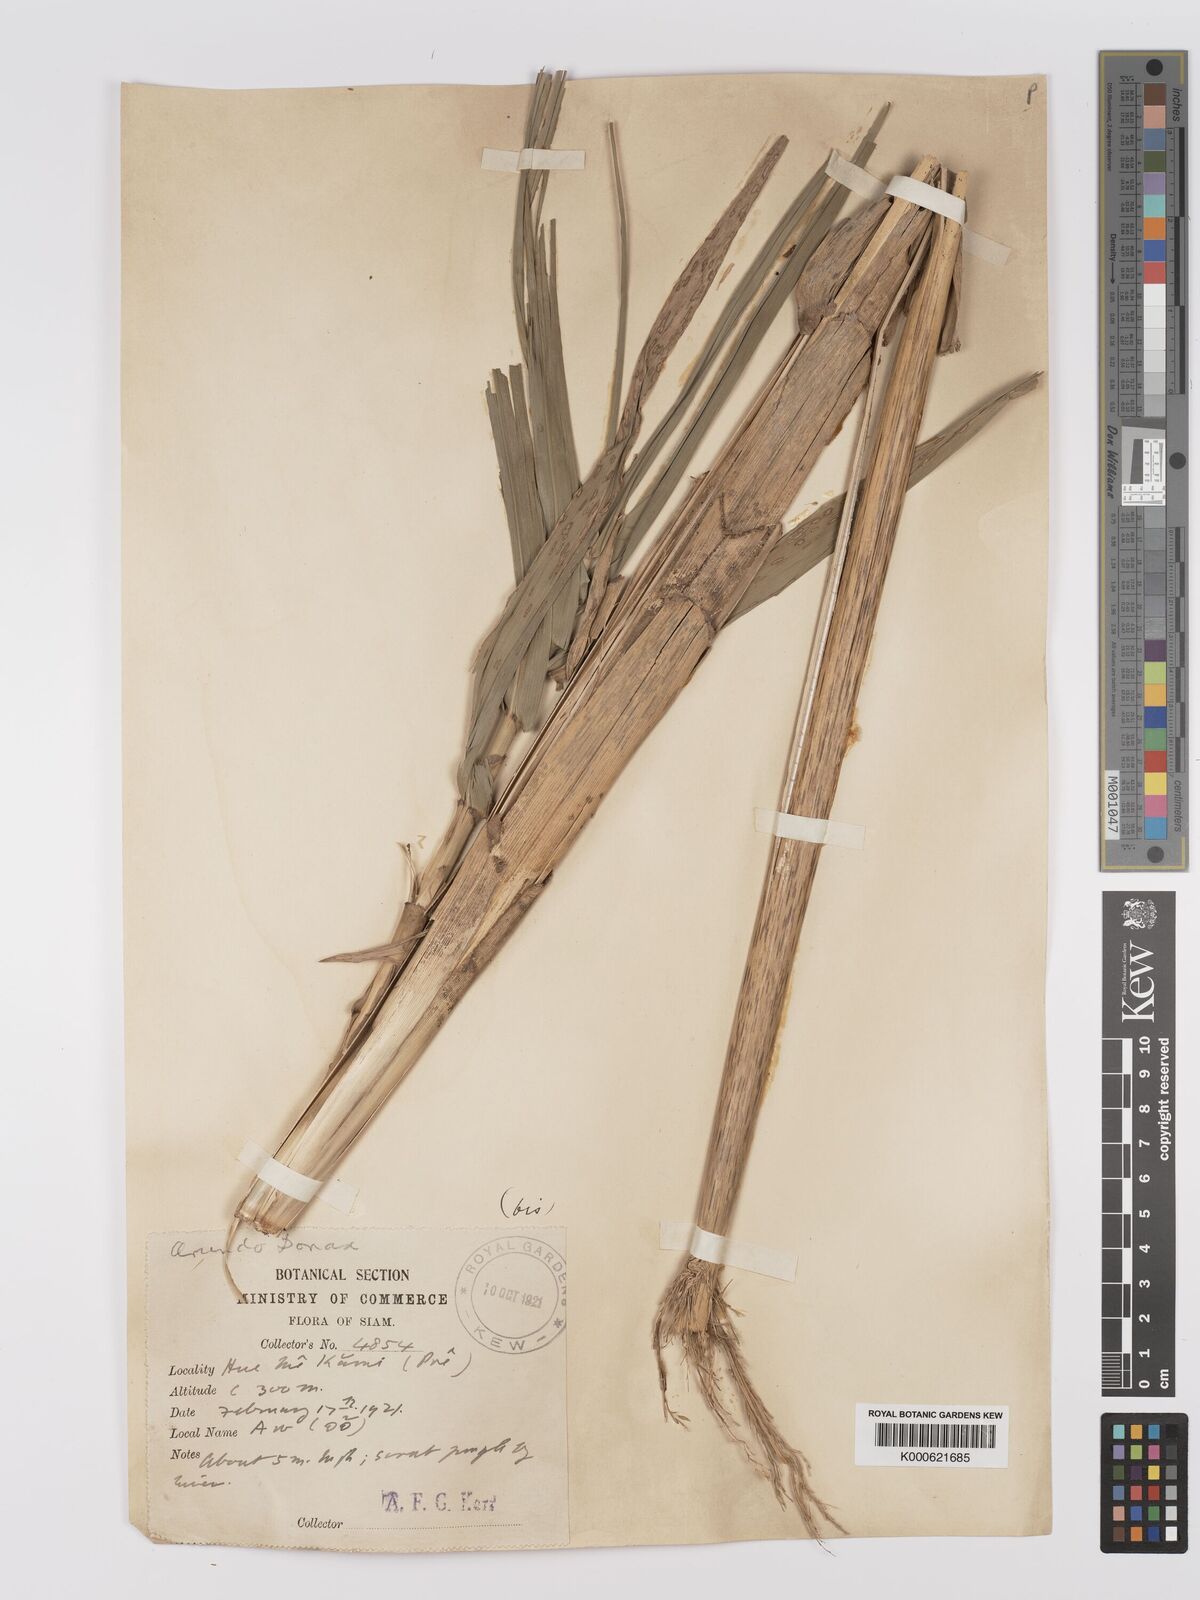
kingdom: Plantae
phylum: Tracheophyta
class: Liliopsida
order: Poales
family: Poaceae
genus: Arundo
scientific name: Arundo donax
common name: Giant reed
